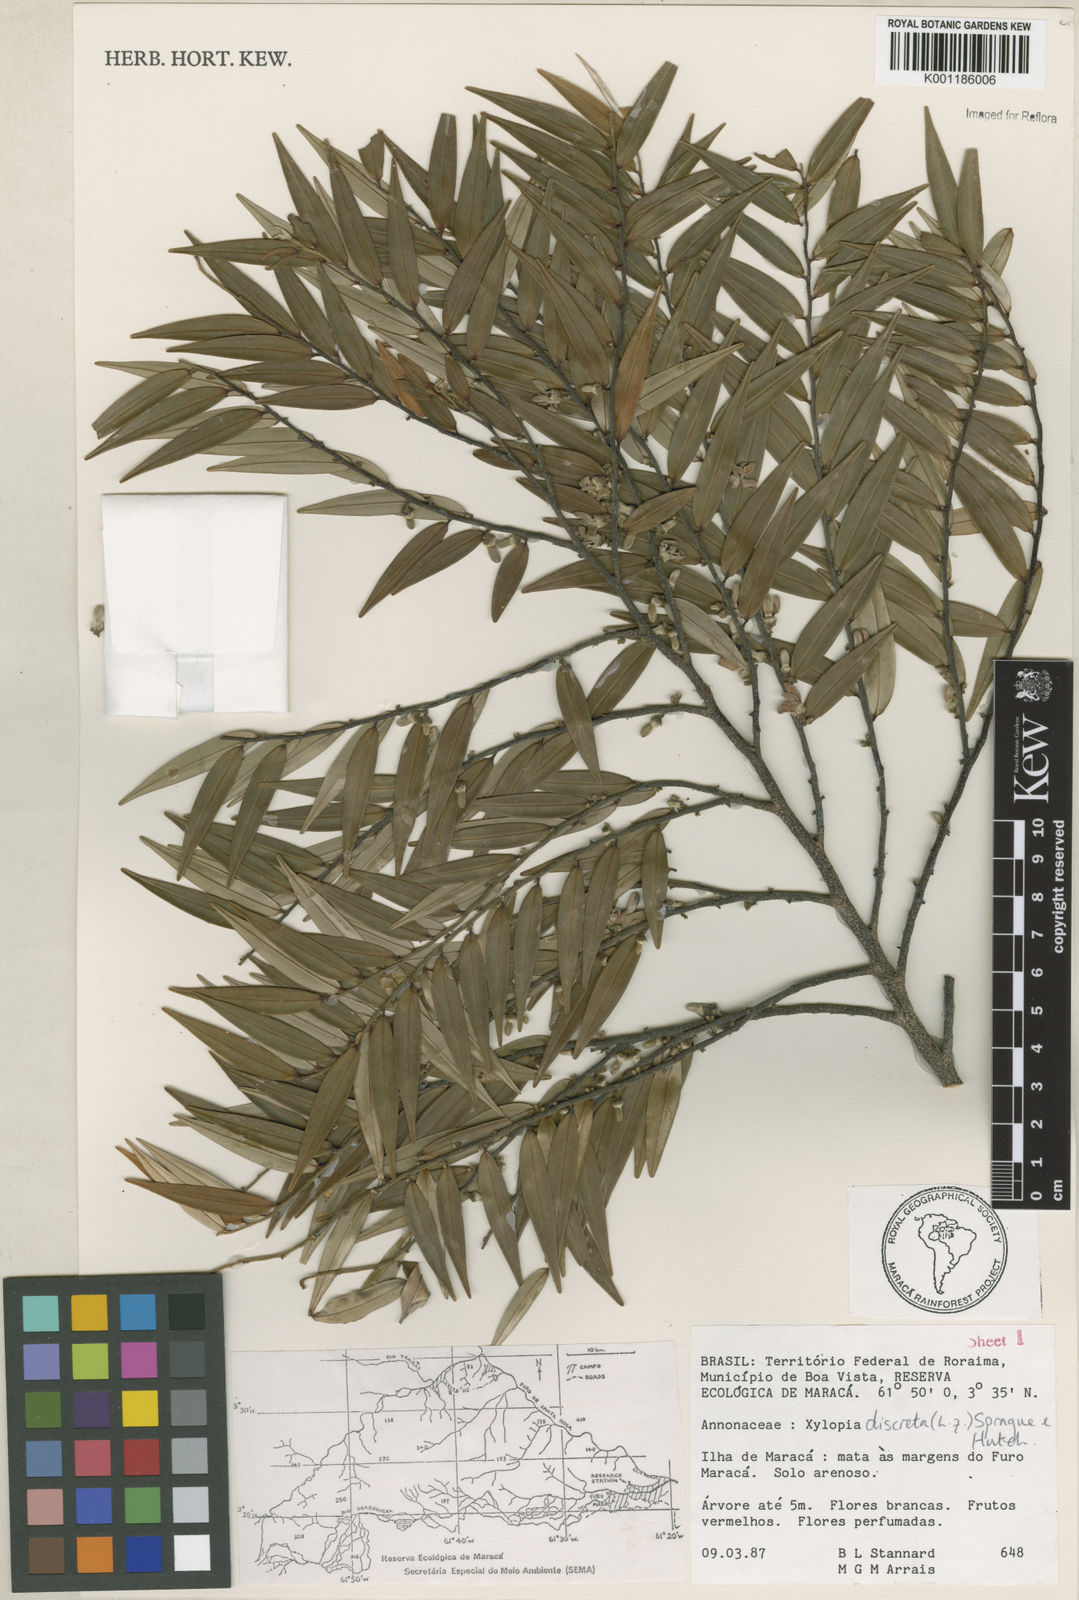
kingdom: Plantae
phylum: Tracheophyta
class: Magnoliopsida
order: Magnoliales
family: Annonaceae
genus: Xylopia
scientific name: Xylopia discreta
